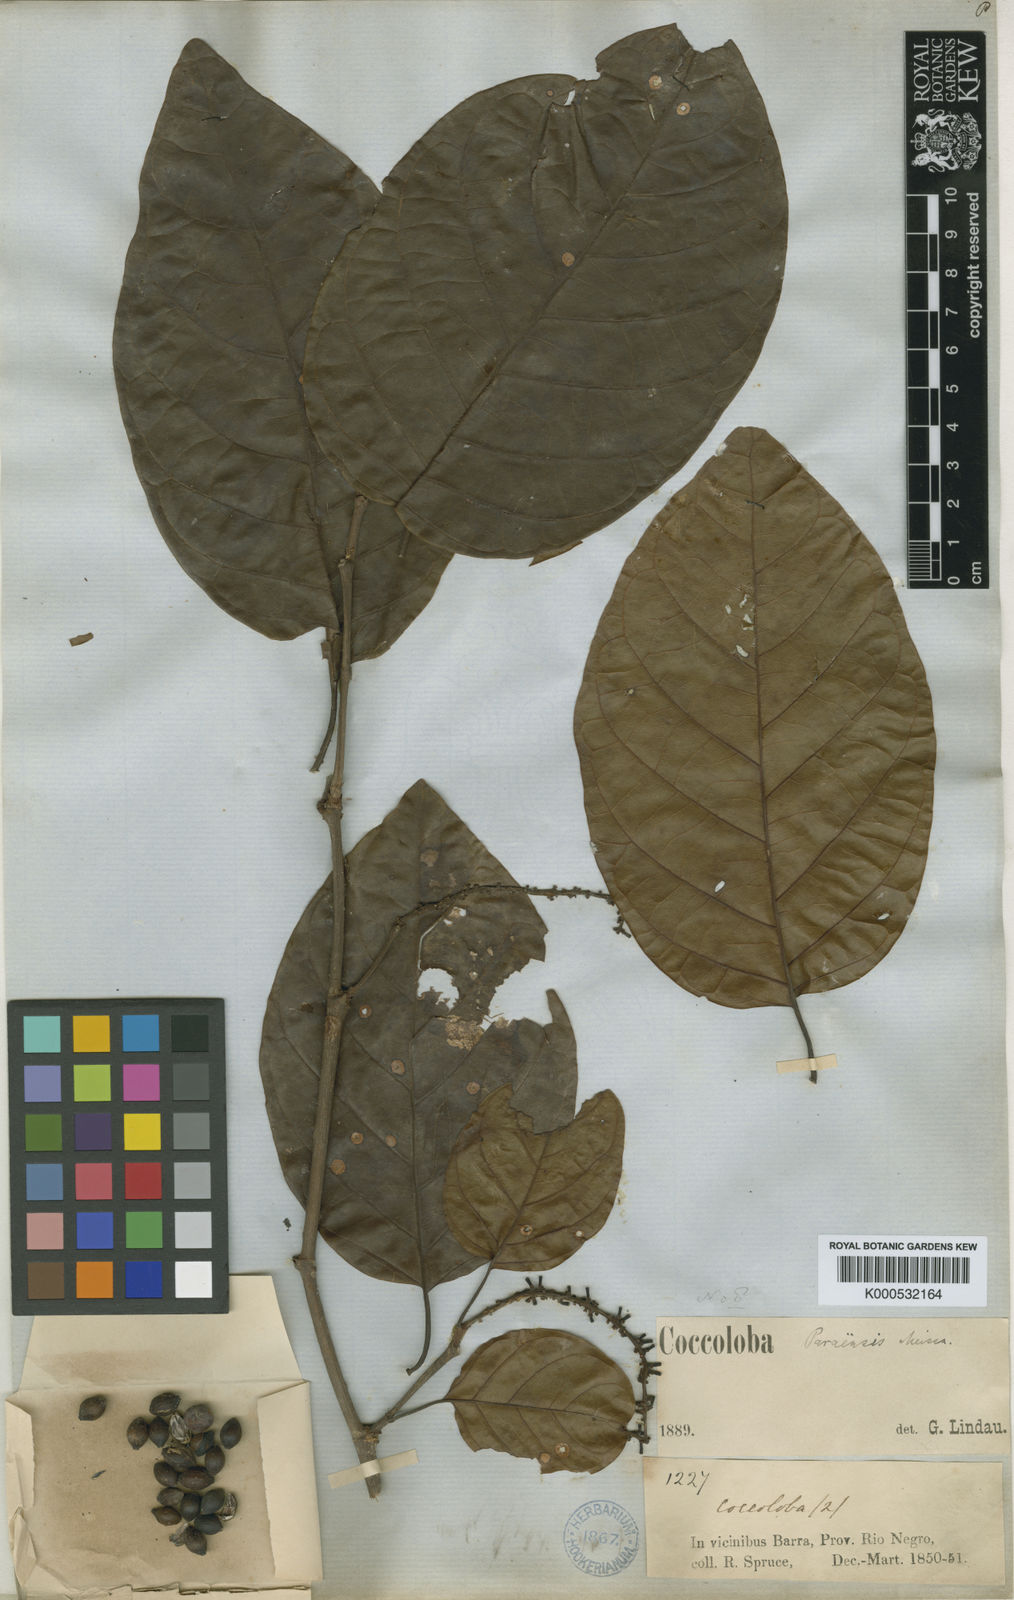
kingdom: Plantae
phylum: Tracheophyta
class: Magnoliopsida
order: Caryophyllales
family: Polygonaceae
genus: Coccoloba
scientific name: Coccoloba paraensis
